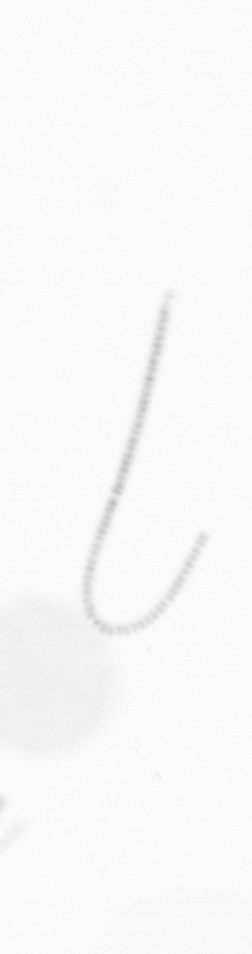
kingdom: Chromista
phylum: Ochrophyta
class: Bacillariophyceae
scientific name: Bacillariophyceae
